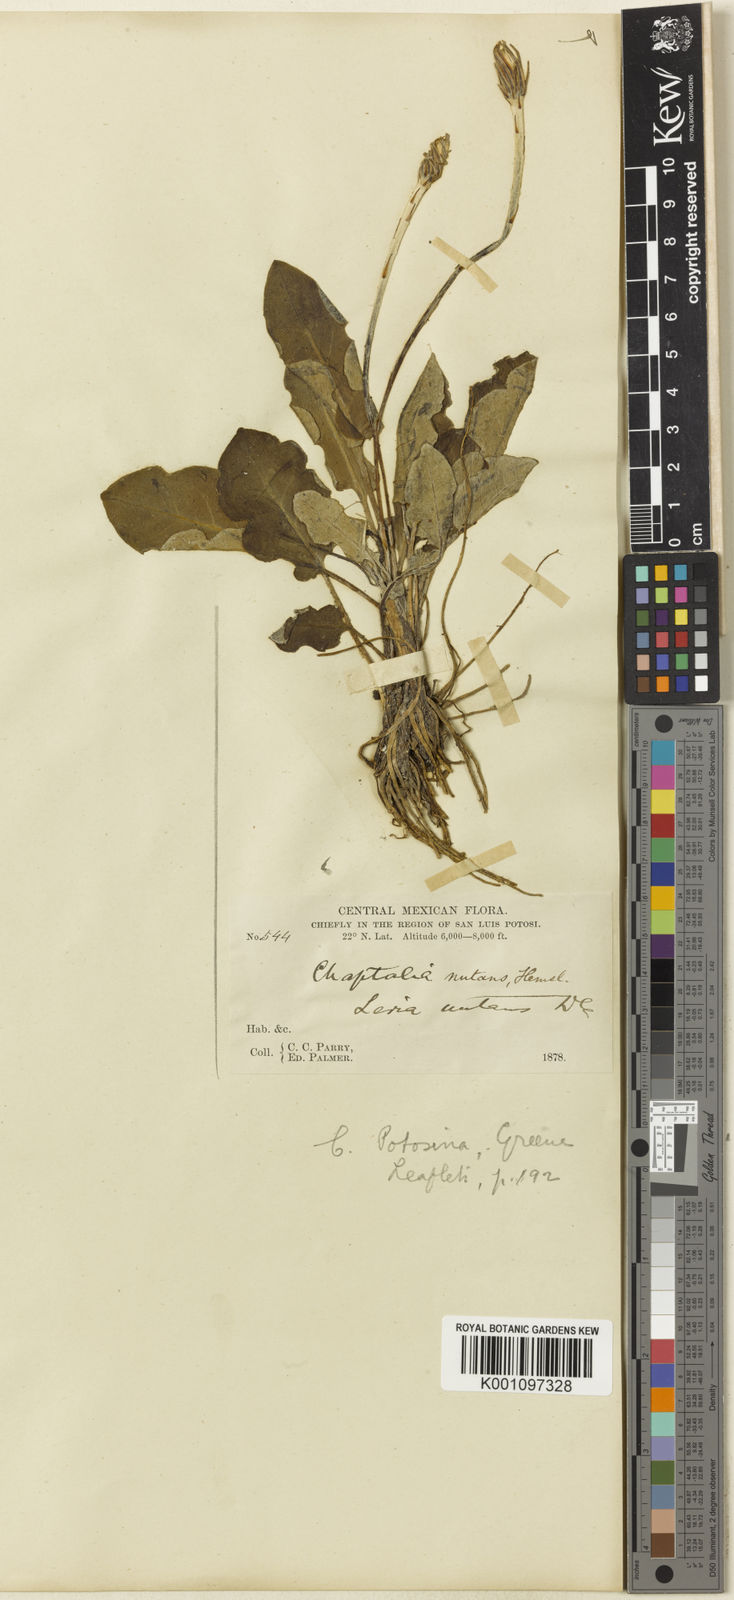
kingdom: Plantae
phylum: Tracheophyta
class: Magnoliopsida
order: Asterales
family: Asteraceae
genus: Leibnitzia
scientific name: Leibnitzia lyrata
